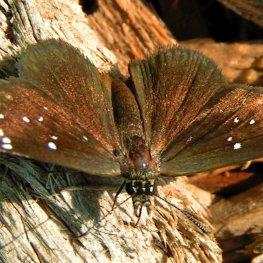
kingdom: Animalia
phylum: Arthropoda
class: Insecta
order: Lepidoptera
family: Hesperiidae
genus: Pholisora
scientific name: Pholisora catullus
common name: Common Sootywing
